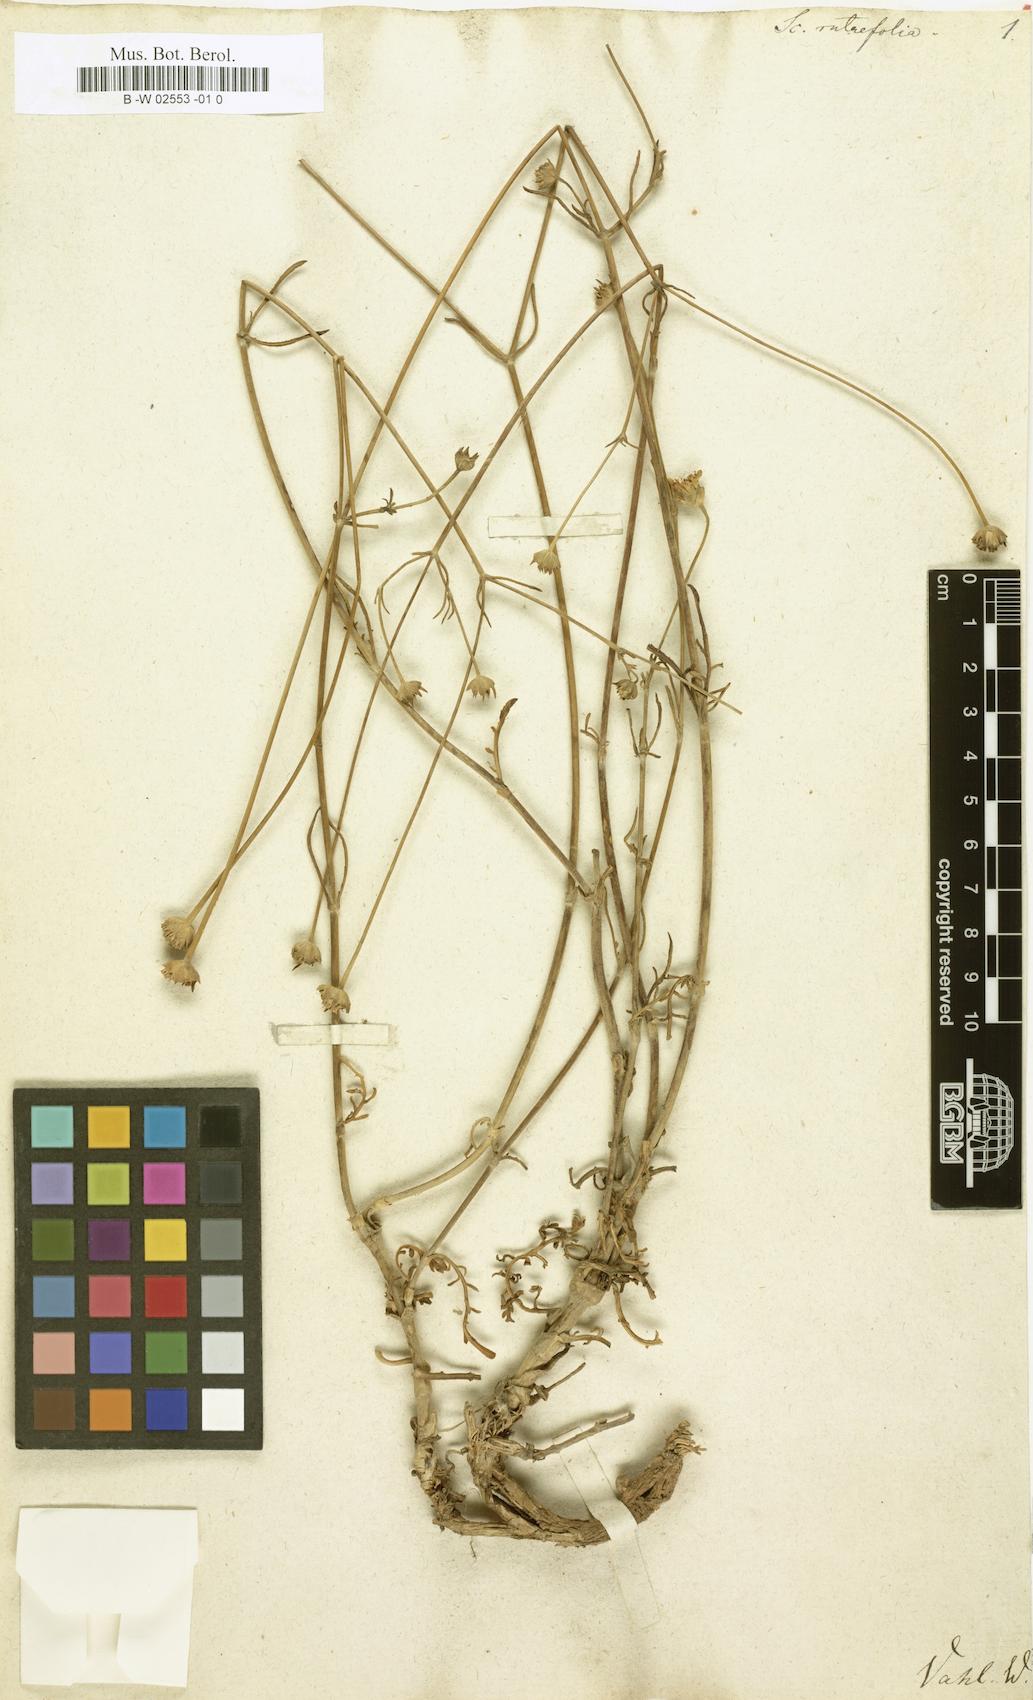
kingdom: Plantae
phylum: Tracheophyta
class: Magnoliopsida
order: Dipsacales
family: Caprifoliaceae
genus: Pycnocomon
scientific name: Pycnocomon rutifolium
